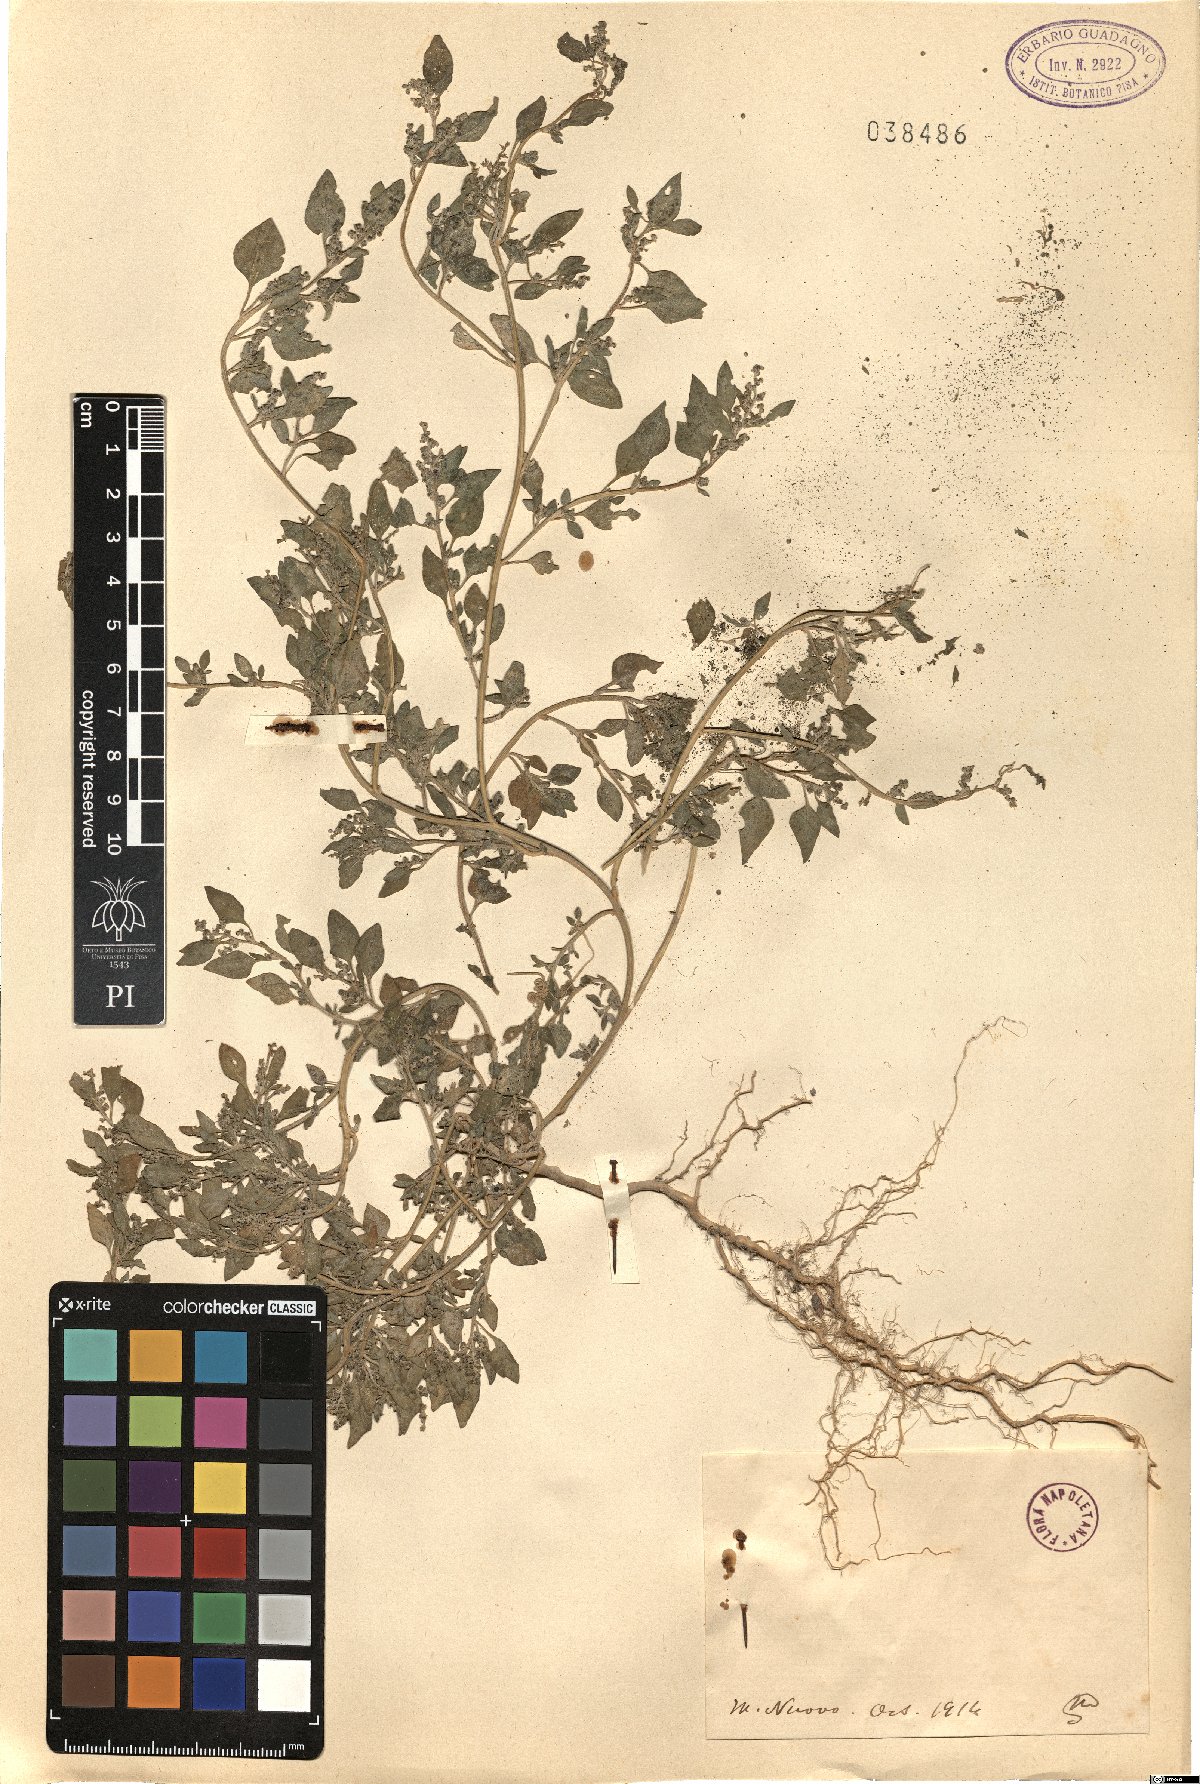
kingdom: Plantae
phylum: Tracheophyta
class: Magnoliopsida
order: Caryophyllales
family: Amaranthaceae
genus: Dysphania
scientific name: Dysphania
